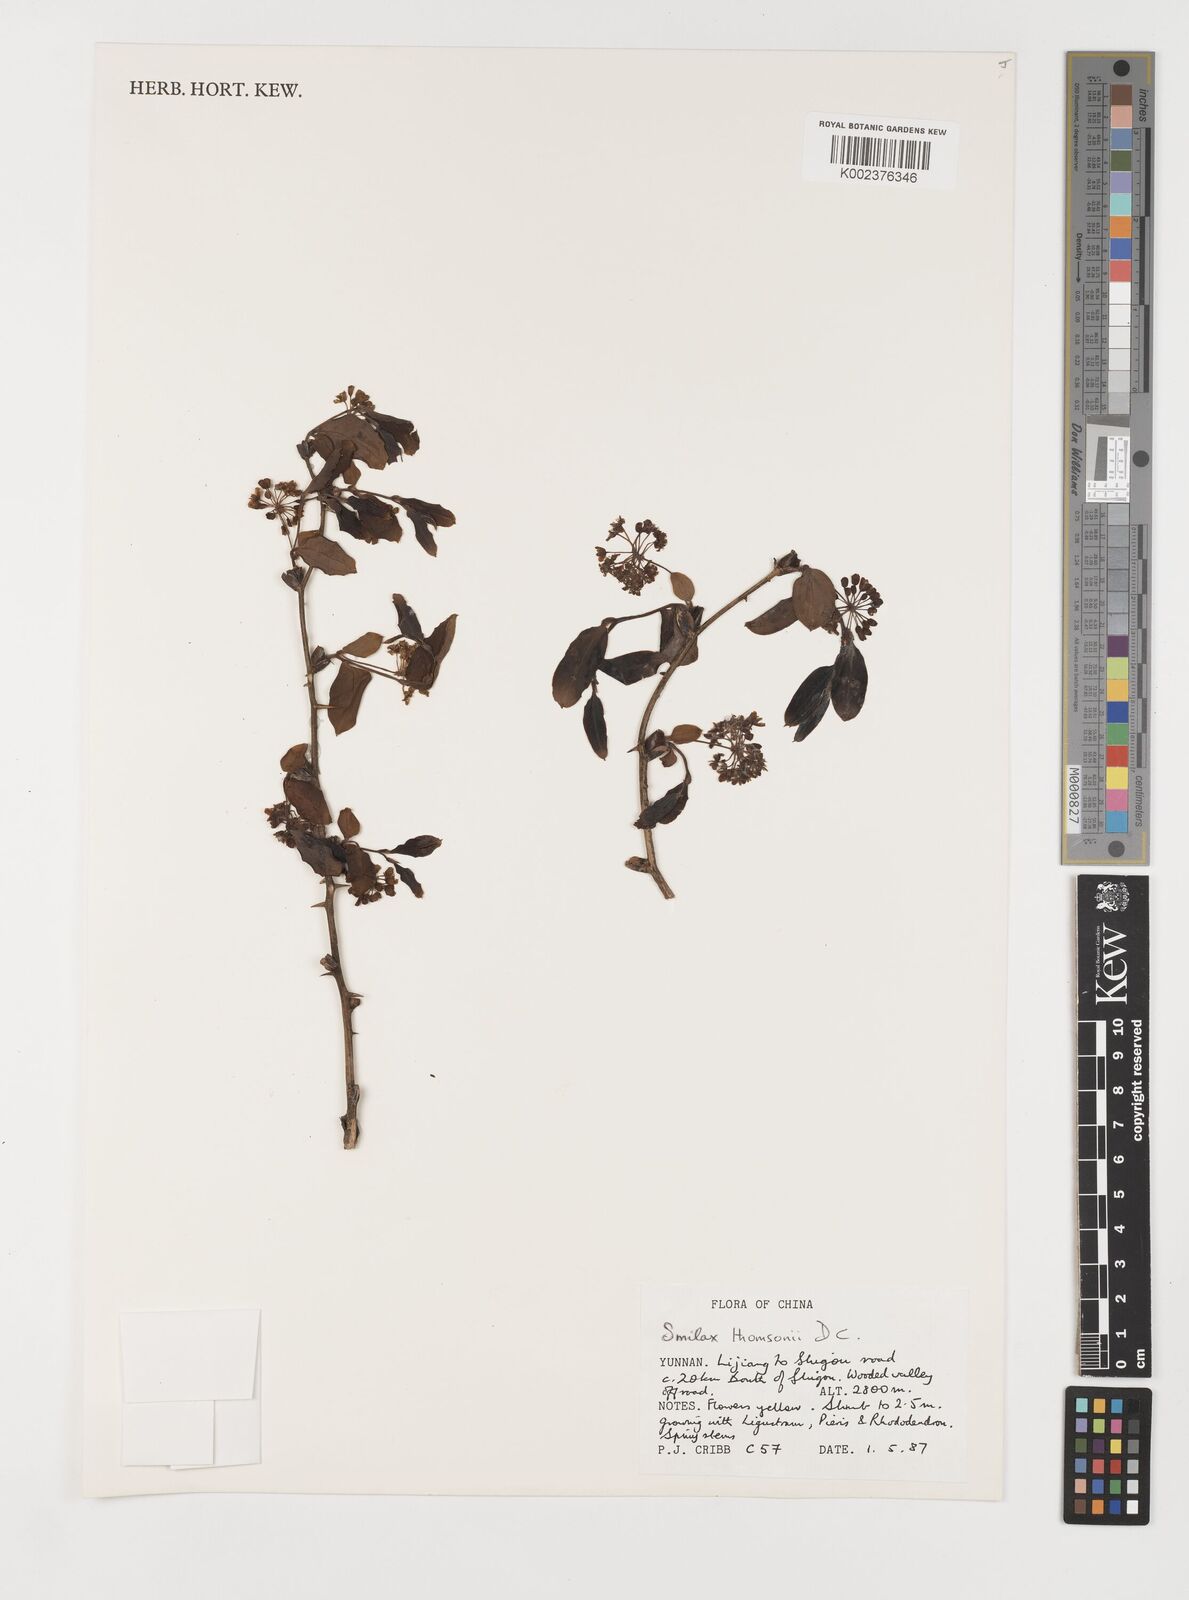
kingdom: Plantae
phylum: Tracheophyta
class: Liliopsida
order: Liliales
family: Smilacaceae
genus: Smilax
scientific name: Smilax china
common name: Chinaroot
